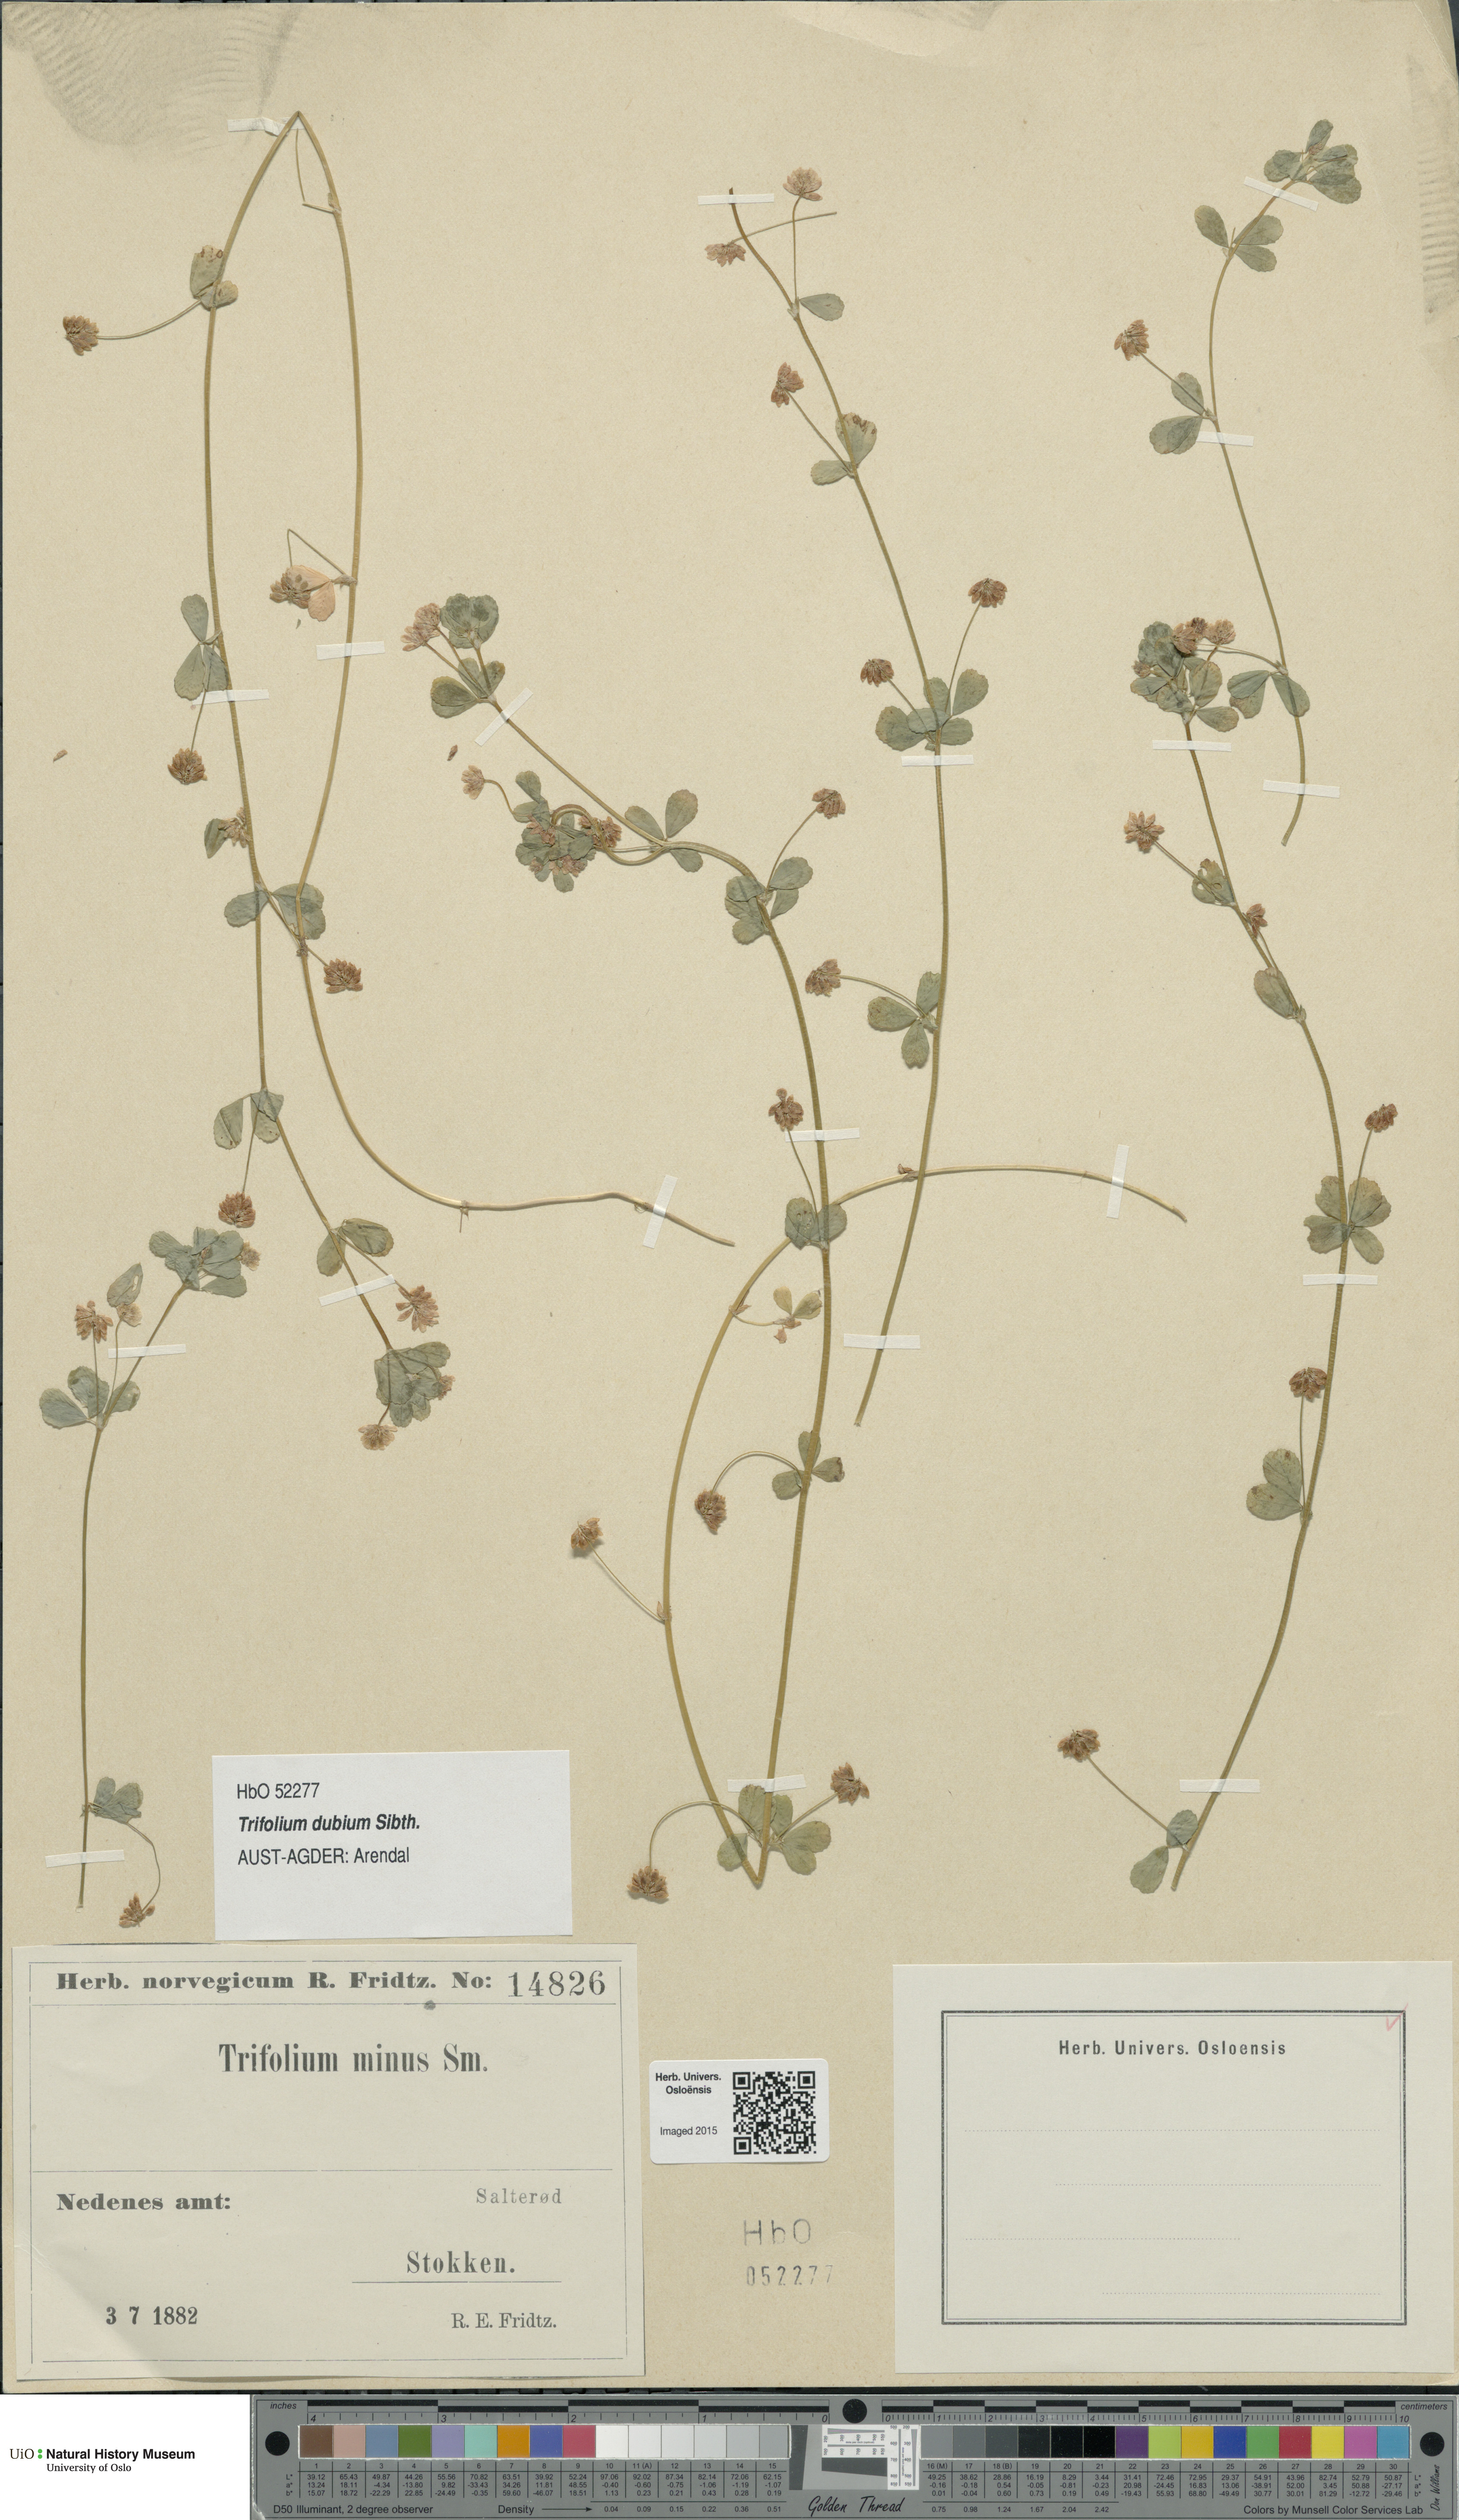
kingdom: Plantae
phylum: Tracheophyta
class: Magnoliopsida
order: Fabales
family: Fabaceae
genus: Trifolium
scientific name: Trifolium dubium
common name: Suckling clover
